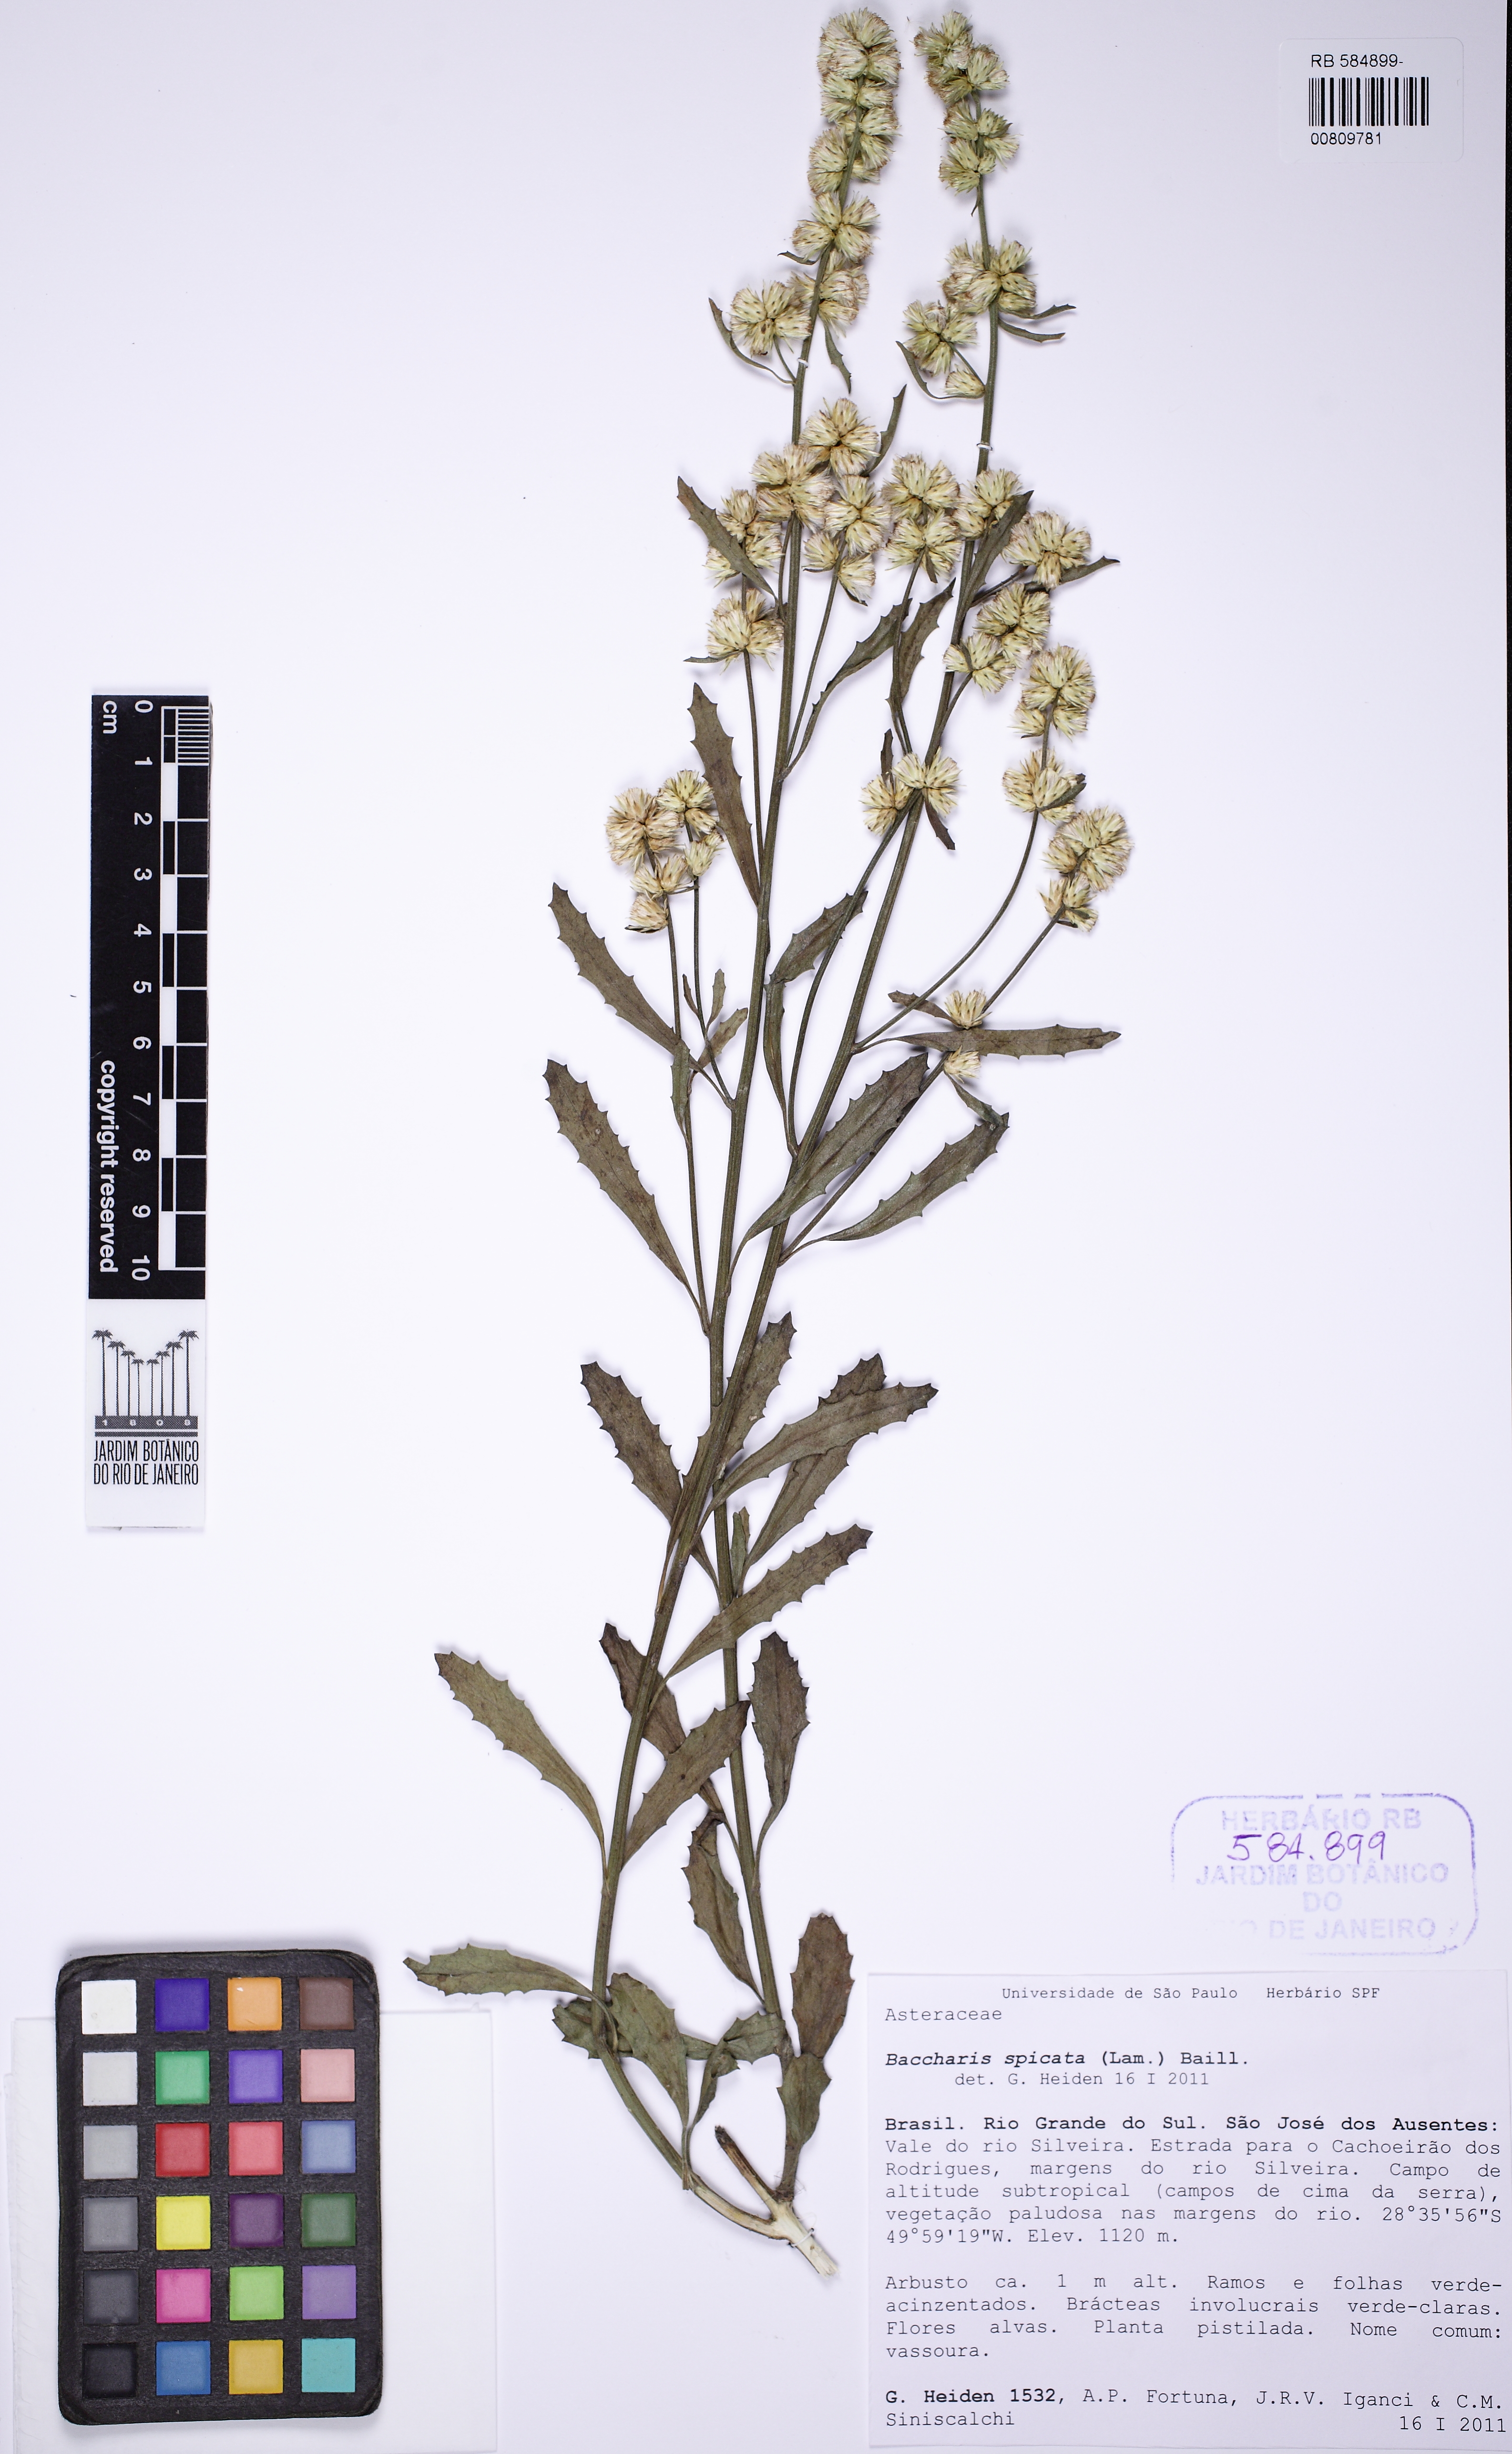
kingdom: Plantae
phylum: Tracheophyta
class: Magnoliopsida
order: Asterales
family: Asteraceae
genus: Baccharis
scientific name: Baccharis spicata
